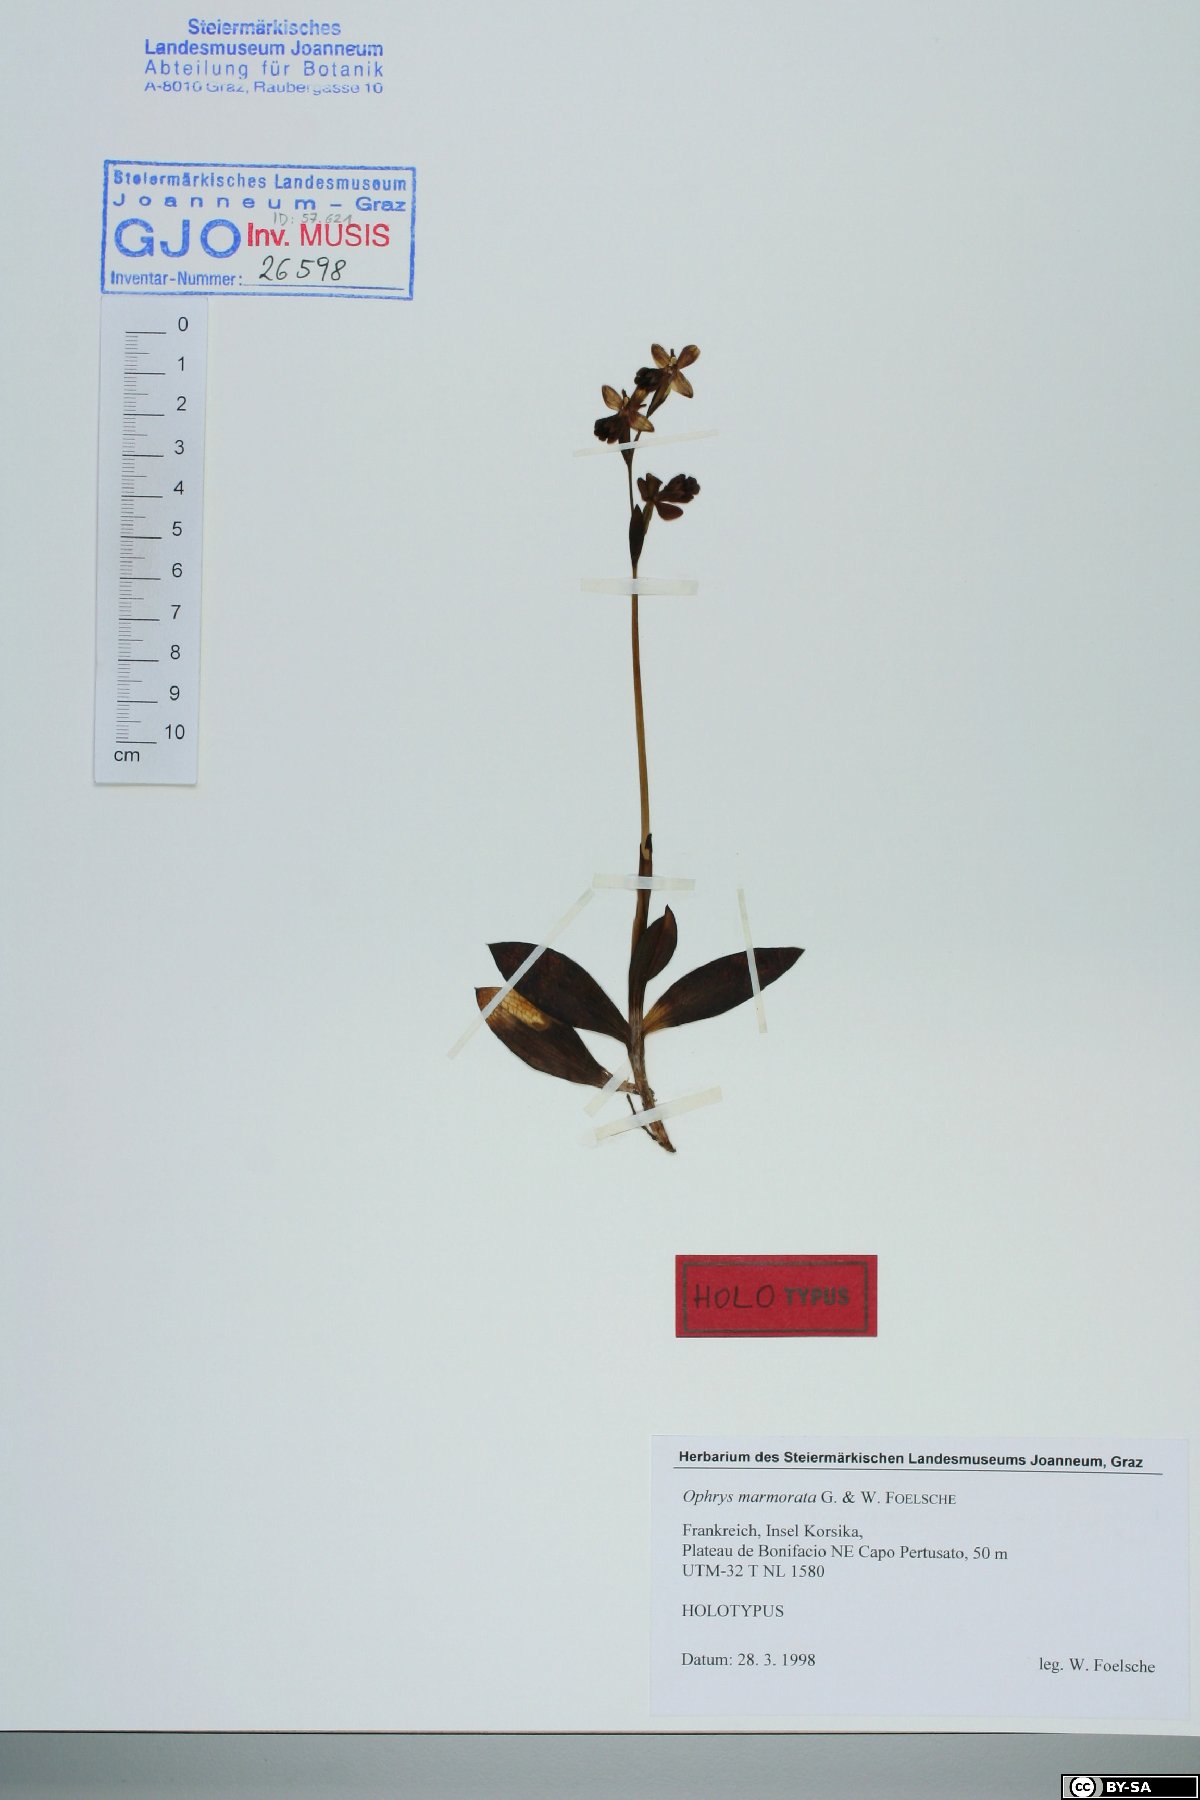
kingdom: Plantae
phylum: Tracheophyta
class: Liliopsida
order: Asparagales
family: Orchidaceae
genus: Ophrys
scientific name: Ophrys fusca
